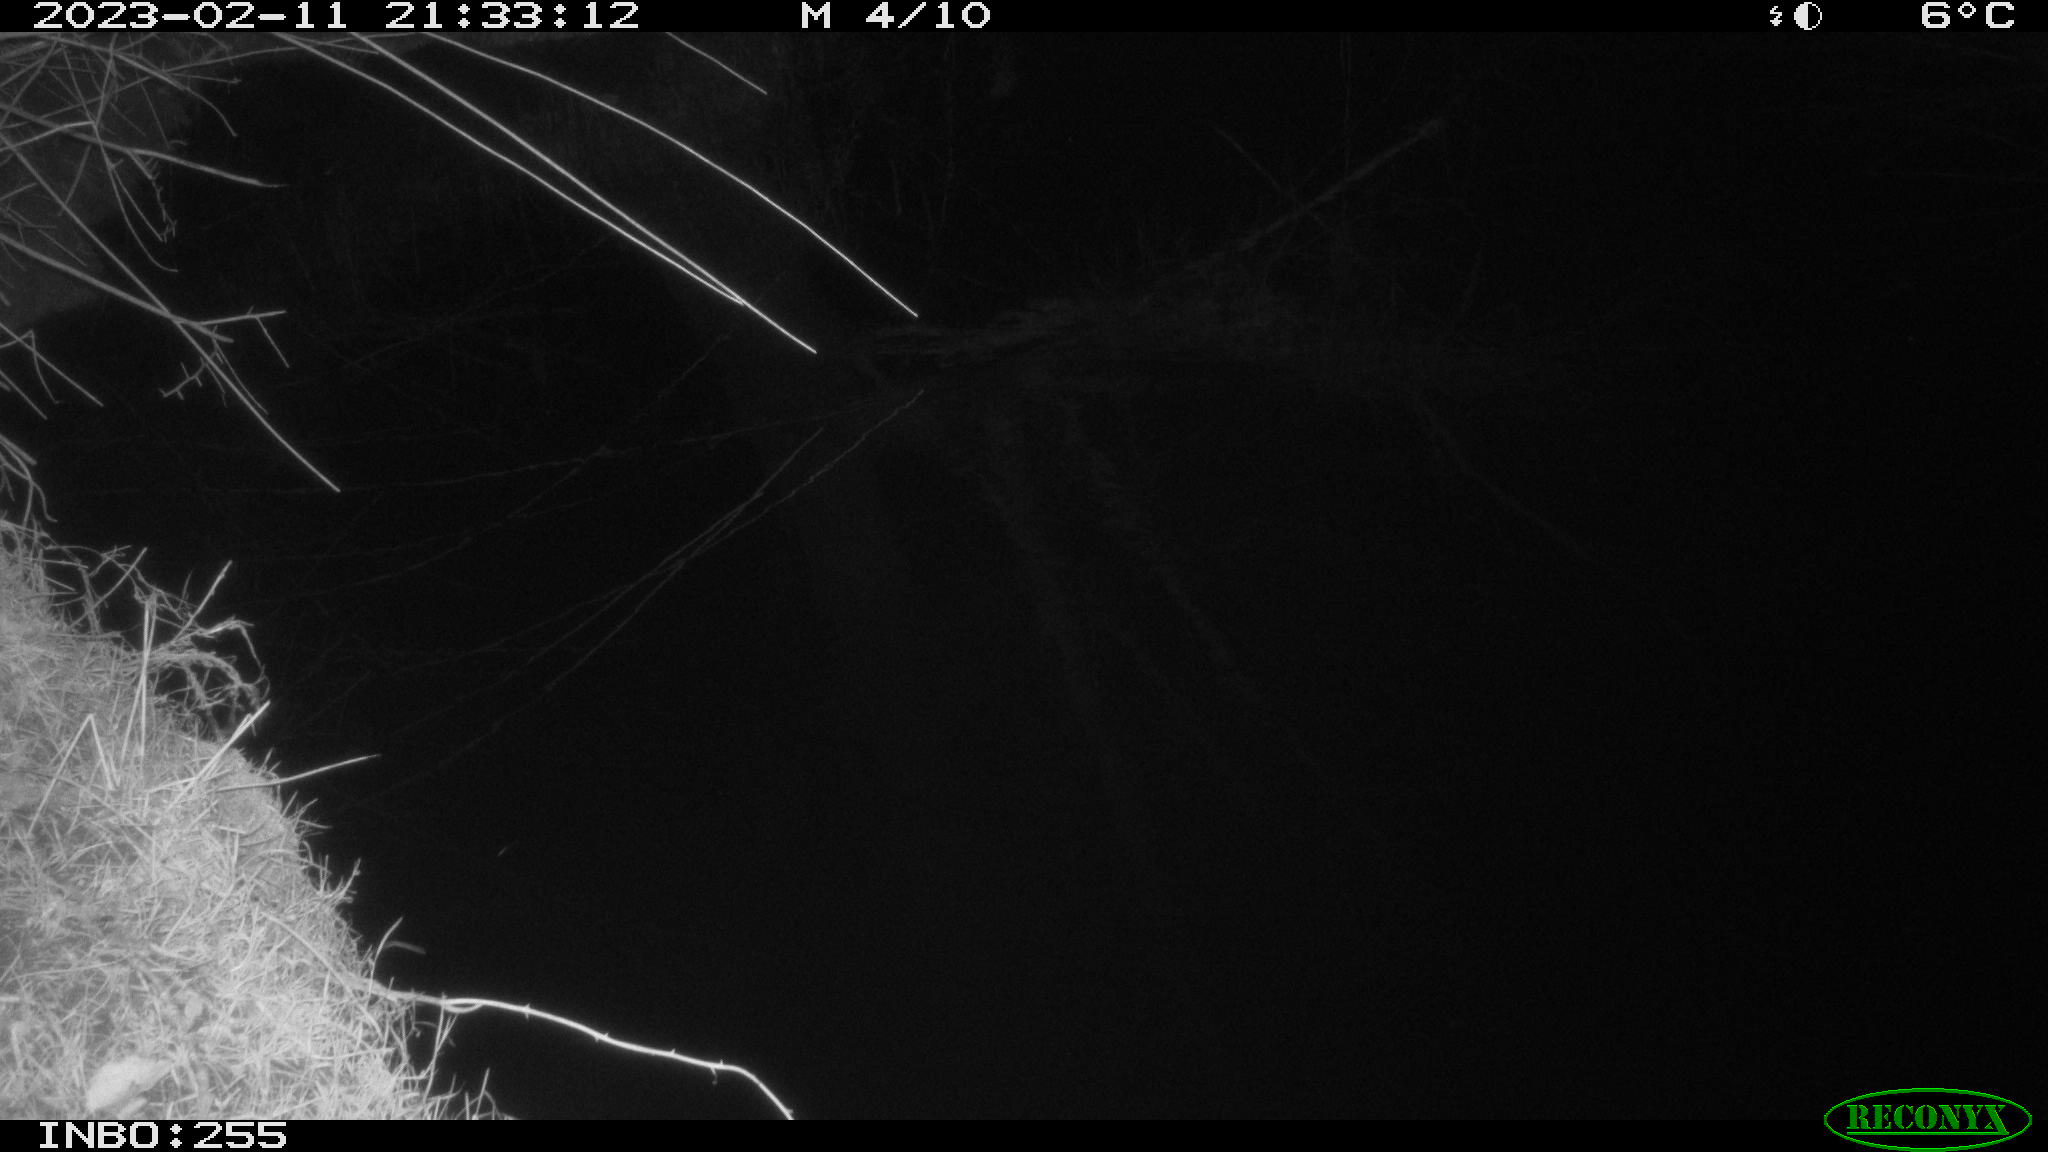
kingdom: Animalia
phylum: Chordata
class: Mammalia
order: Rodentia
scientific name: Rodentia
